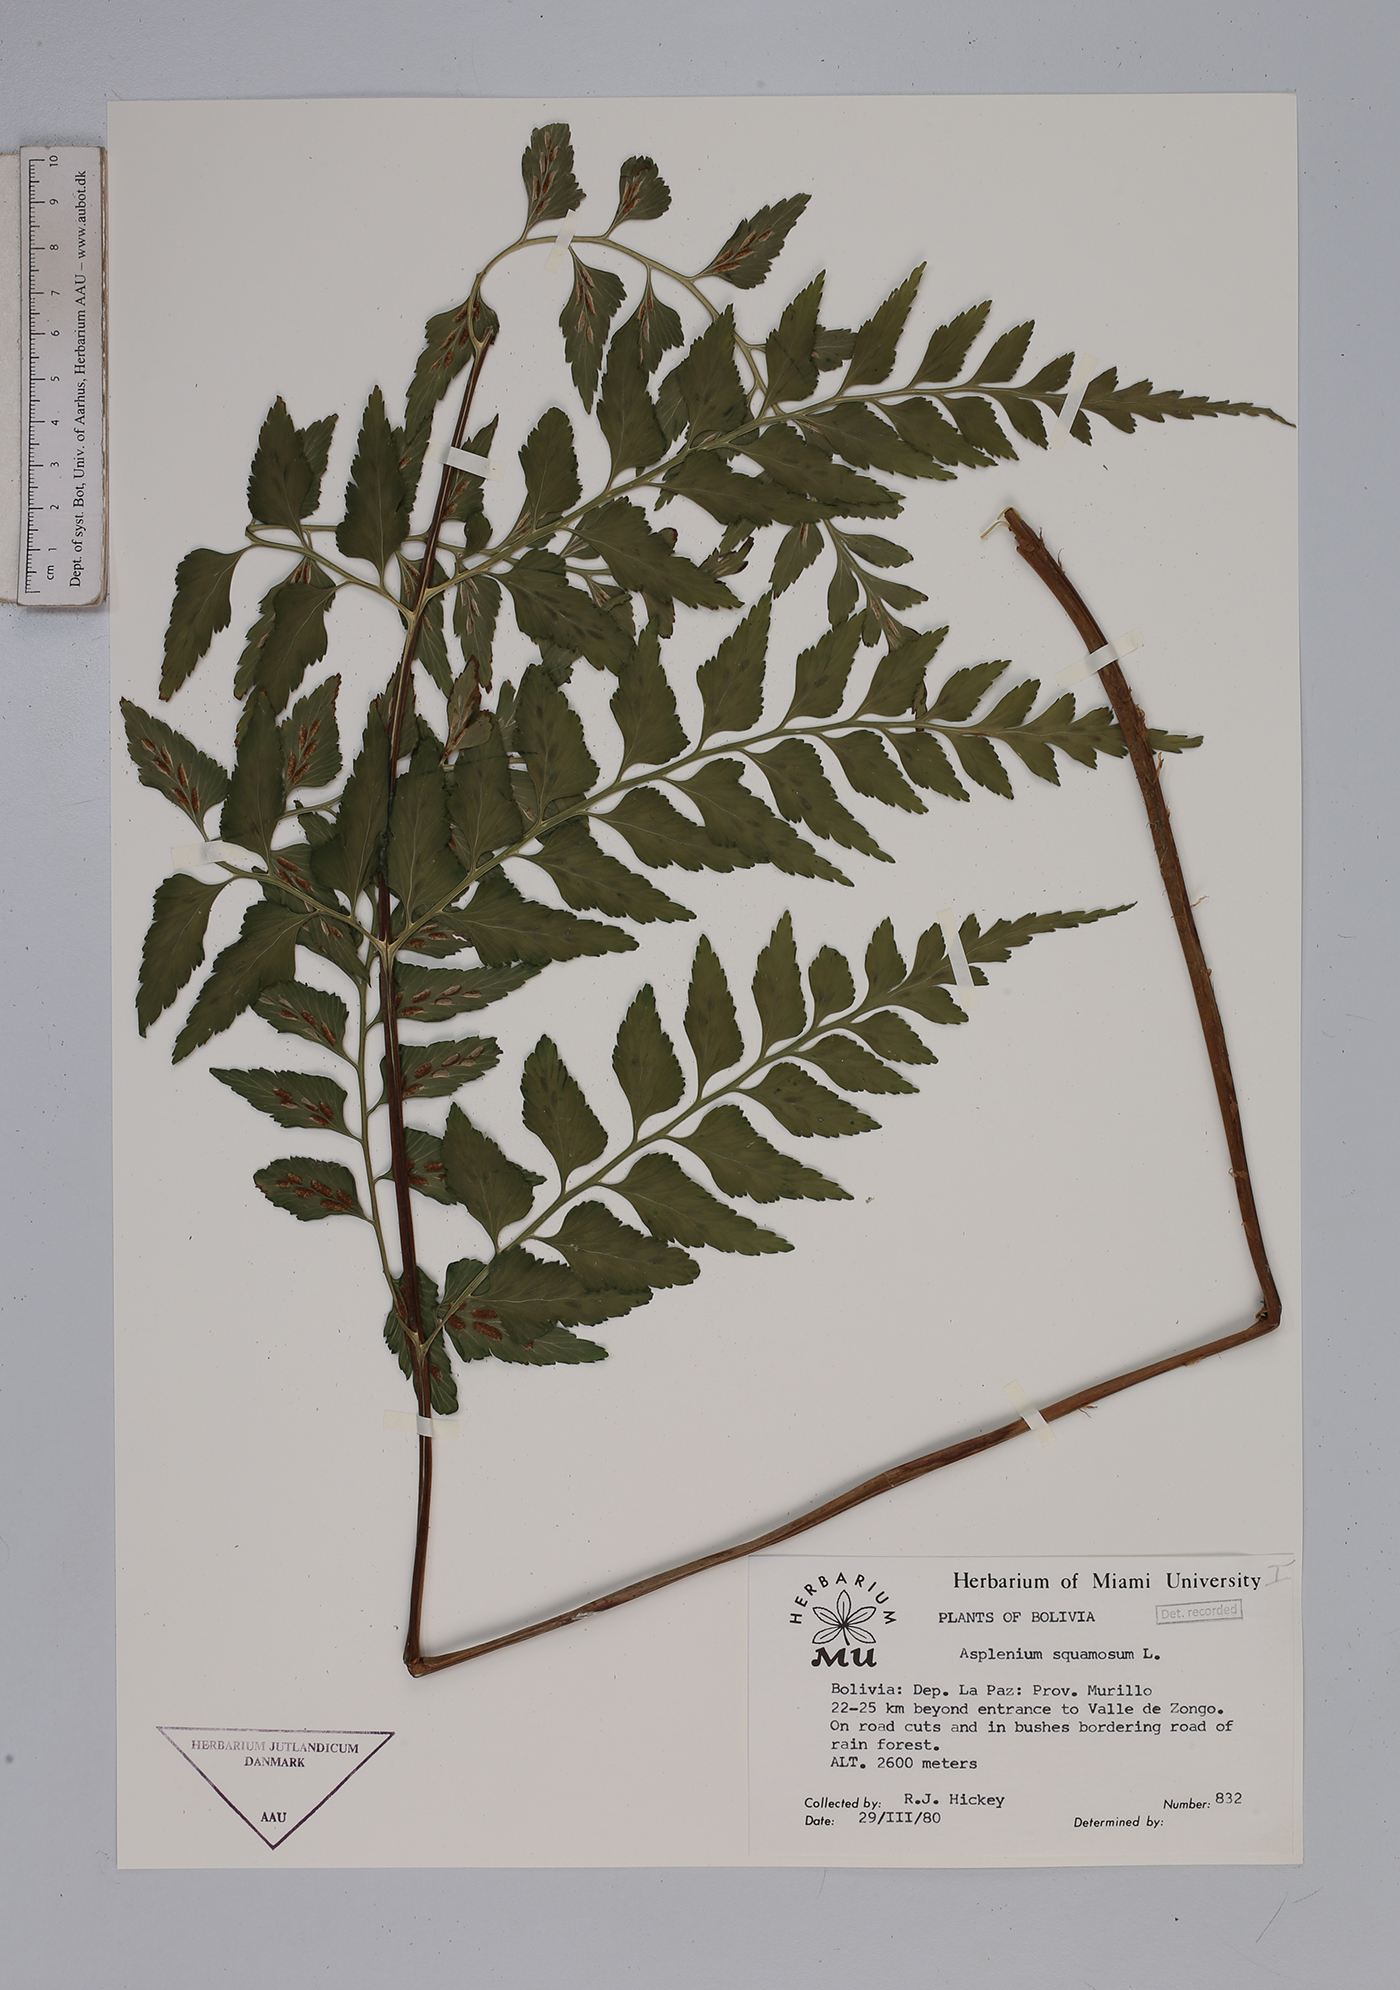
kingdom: Plantae
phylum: Tracheophyta
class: Polypodiopsida
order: Polypodiales
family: Aspleniaceae
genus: Asplenium
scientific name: Asplenium squamosum
